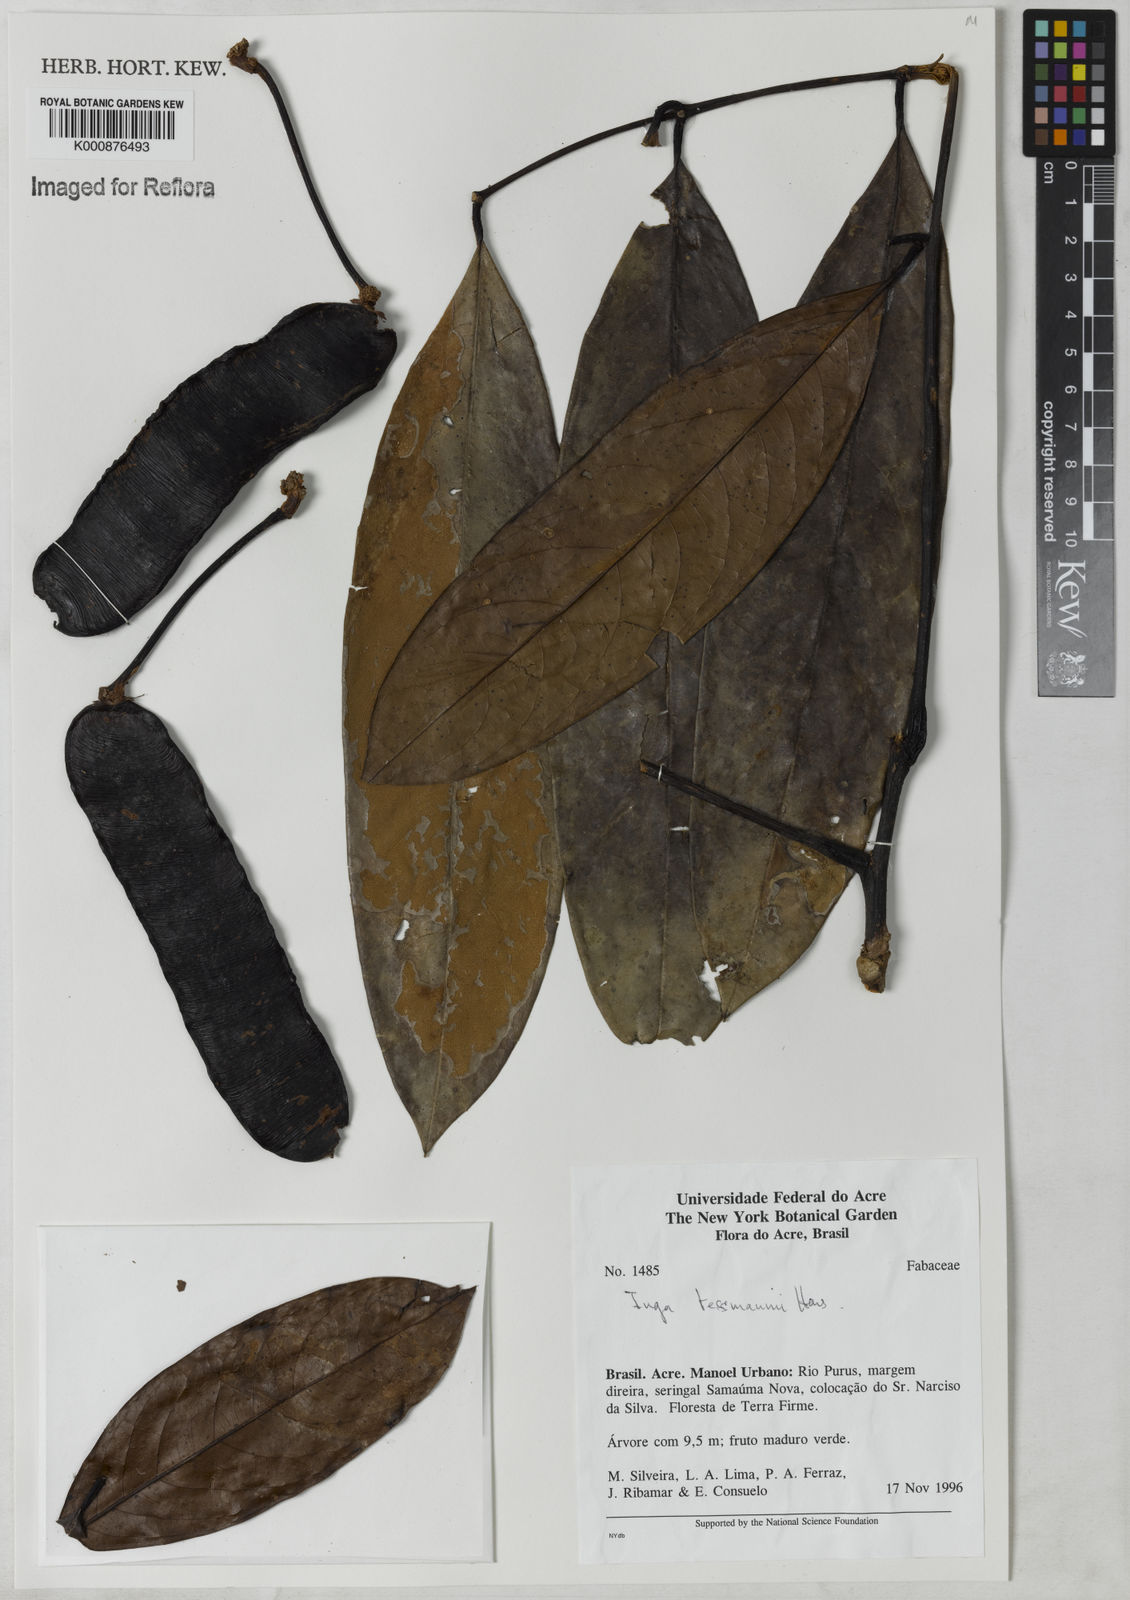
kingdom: Plantae
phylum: Tracheophyta
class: Magnoliopsida
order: Fabales
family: Fabaceae
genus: Inga
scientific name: Inga tessmannii
